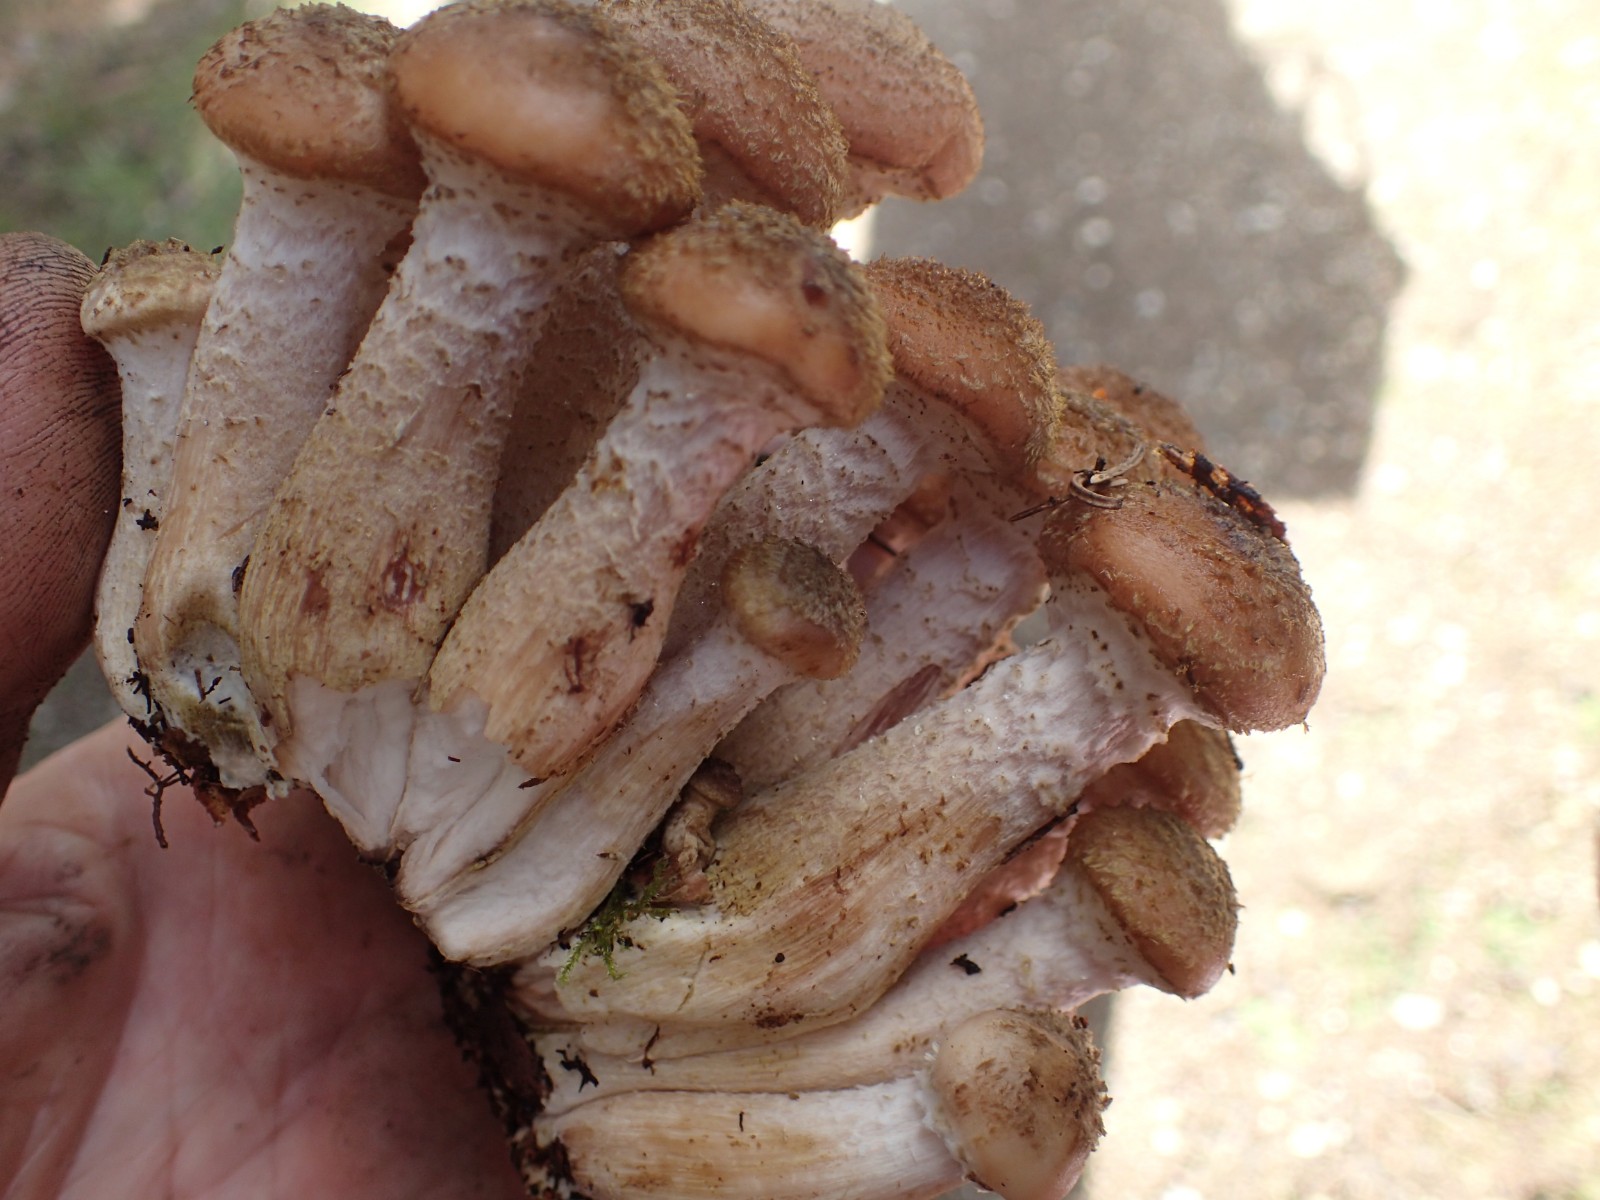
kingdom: Fungi
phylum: Basidiomycota
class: Agaricomycetes
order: Agaricales
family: Physalacriaceae
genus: Armillaria
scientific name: Armillaria ostoyae
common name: mørk honningsvamp
